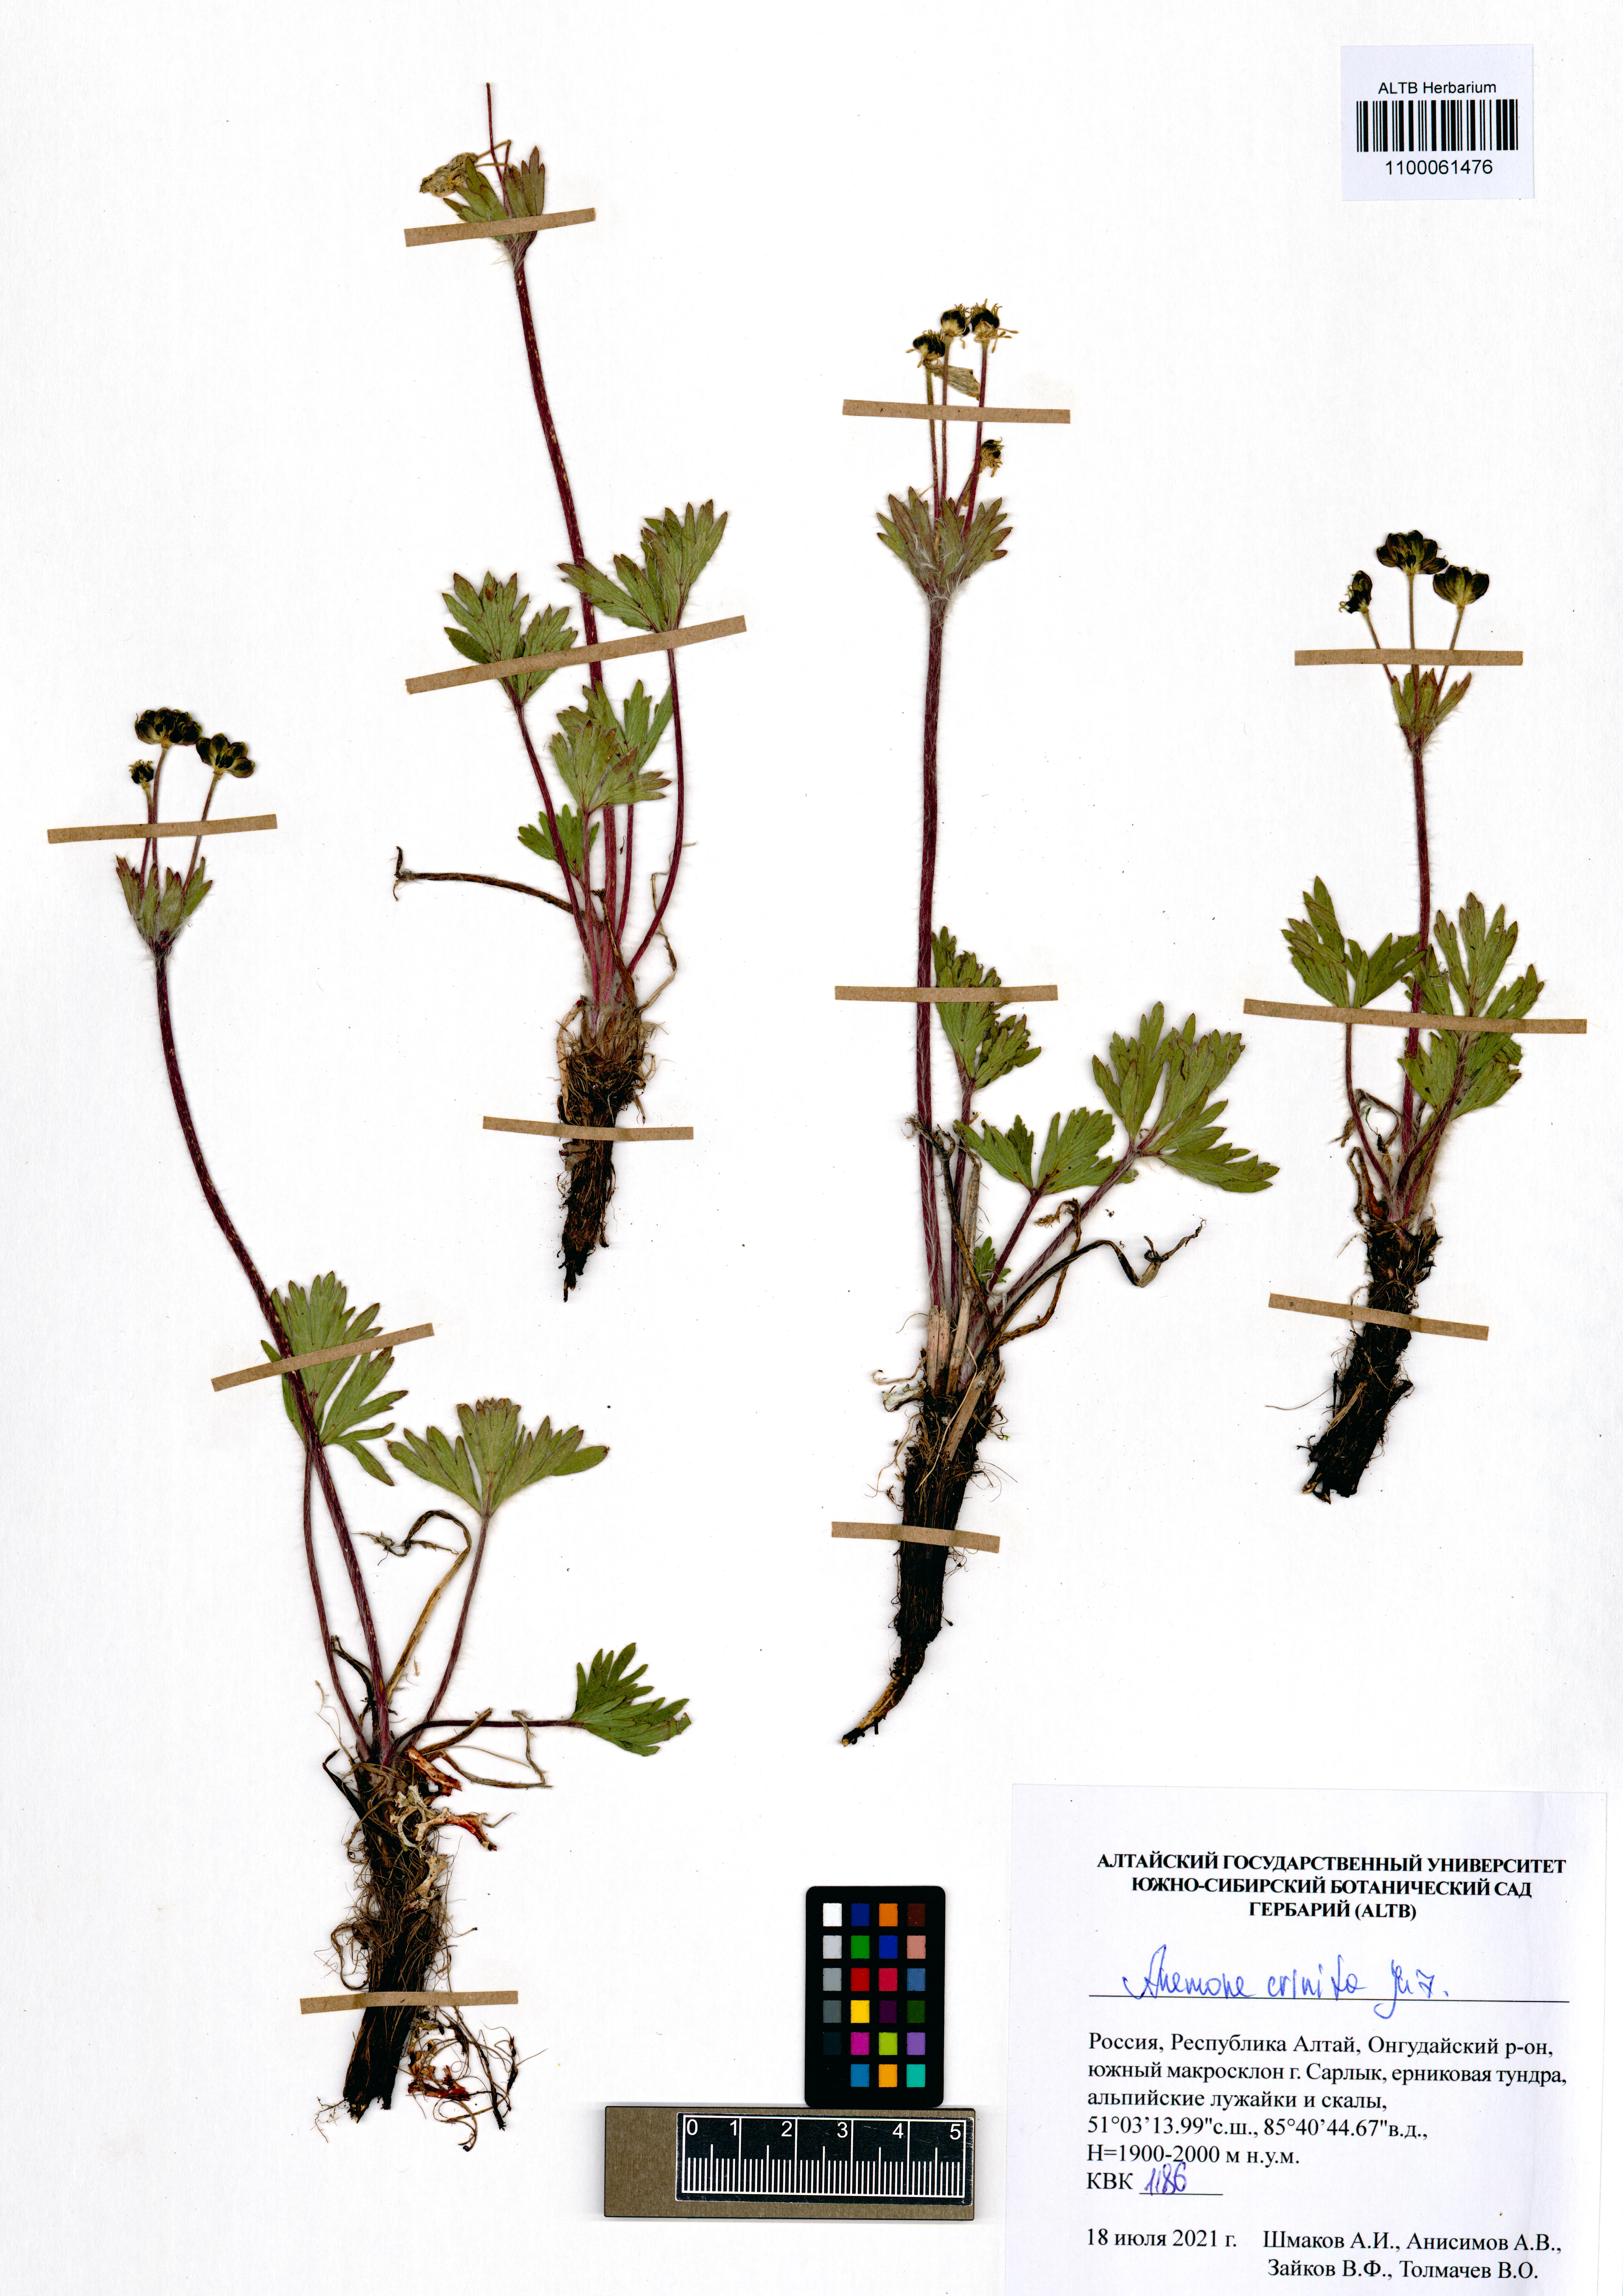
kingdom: Plantae
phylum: Tracheophyta
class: Magnoliopsida
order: Ranunculales
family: Ranunculaceae
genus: Anemonastrum
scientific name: Anemonastrum narcissiflorum
